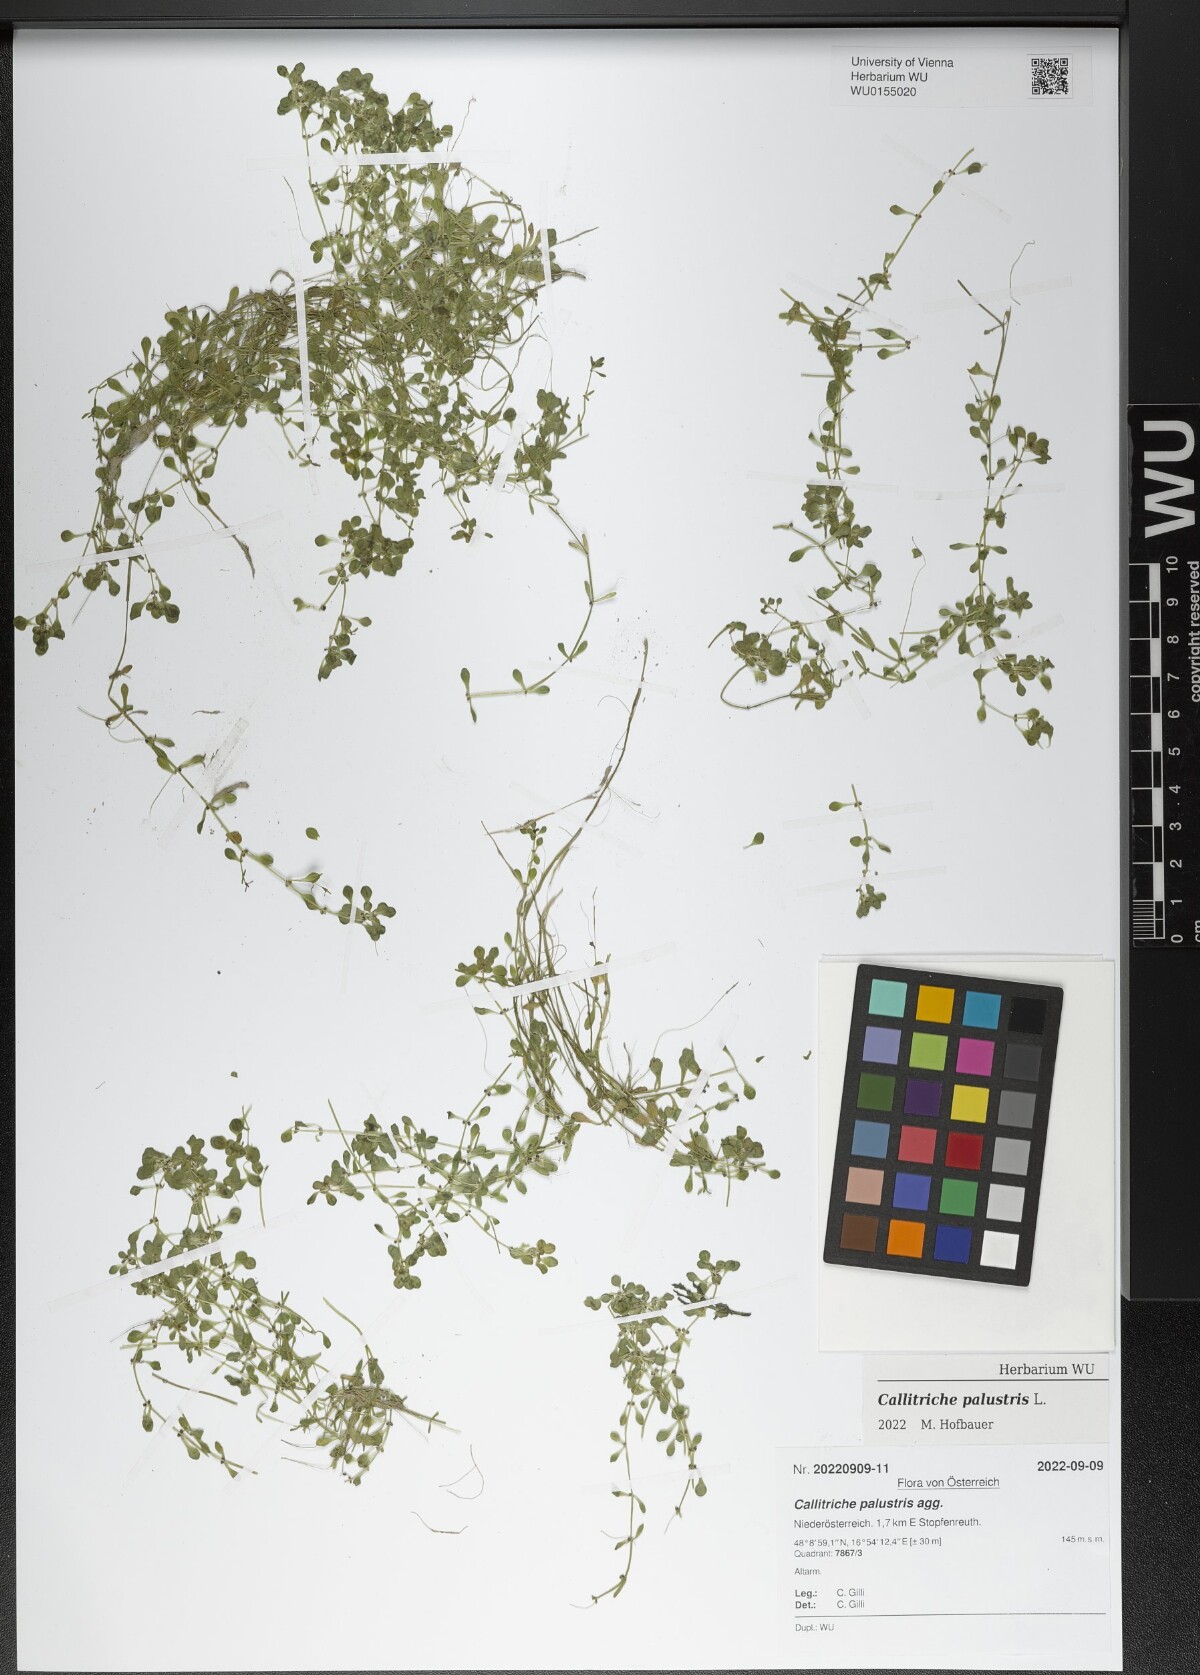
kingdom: Plantae
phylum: Tracheophyta
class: Magnoliopsida
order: Lamiales
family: Plantaginaceae
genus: Callitriche
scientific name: Callitriche palustris
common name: Spring water-starwort
